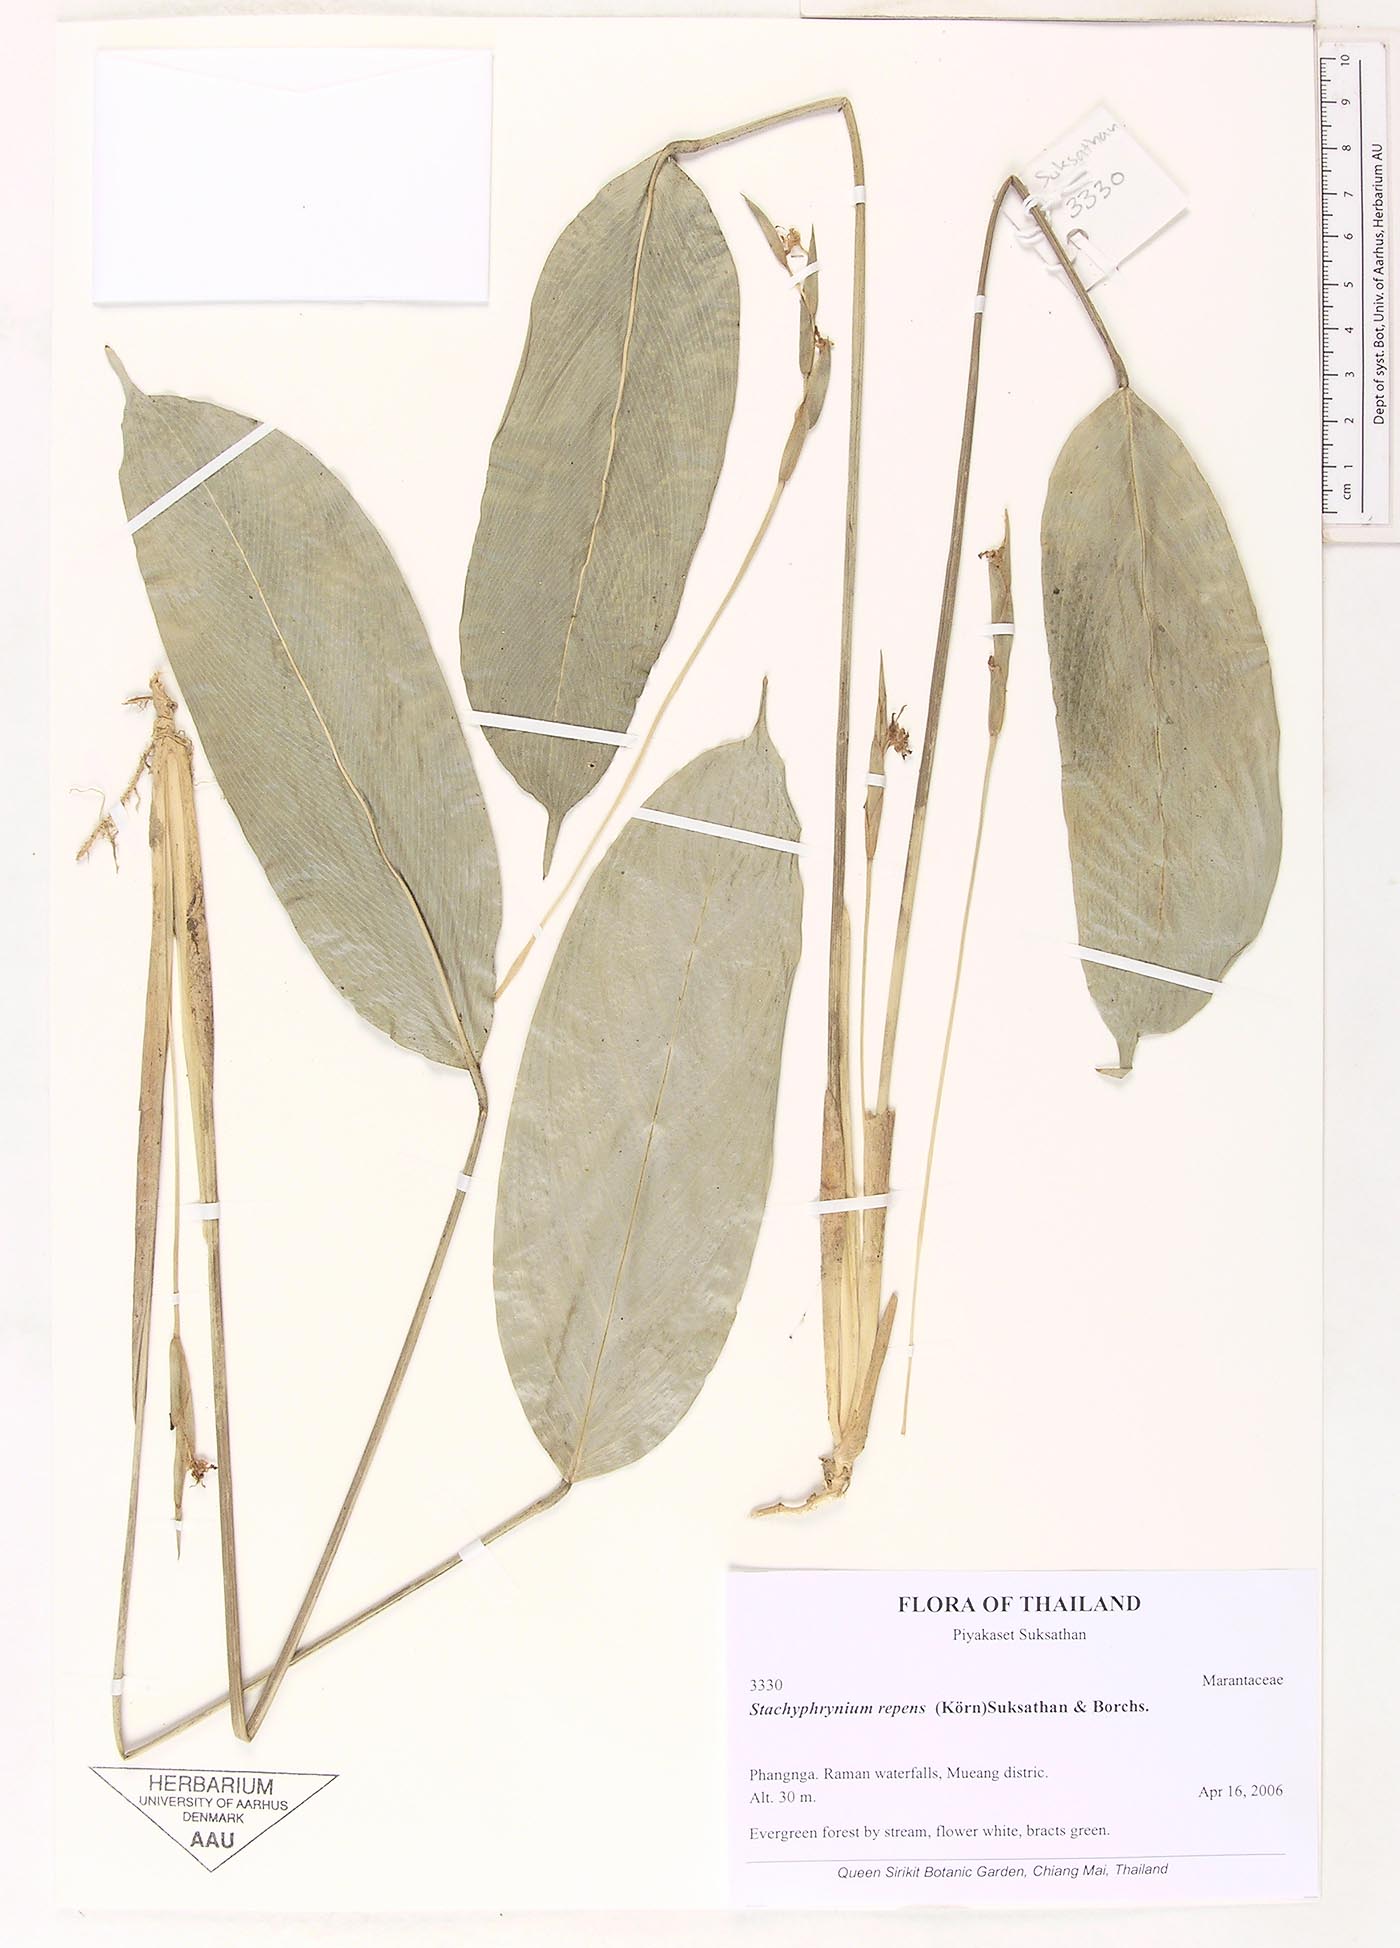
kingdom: Plantae
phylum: Tracheophyta
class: Liliopsida
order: Zingiberales
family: Marantaceae
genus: Stachyphrynium
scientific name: Stachyphrynium repens
